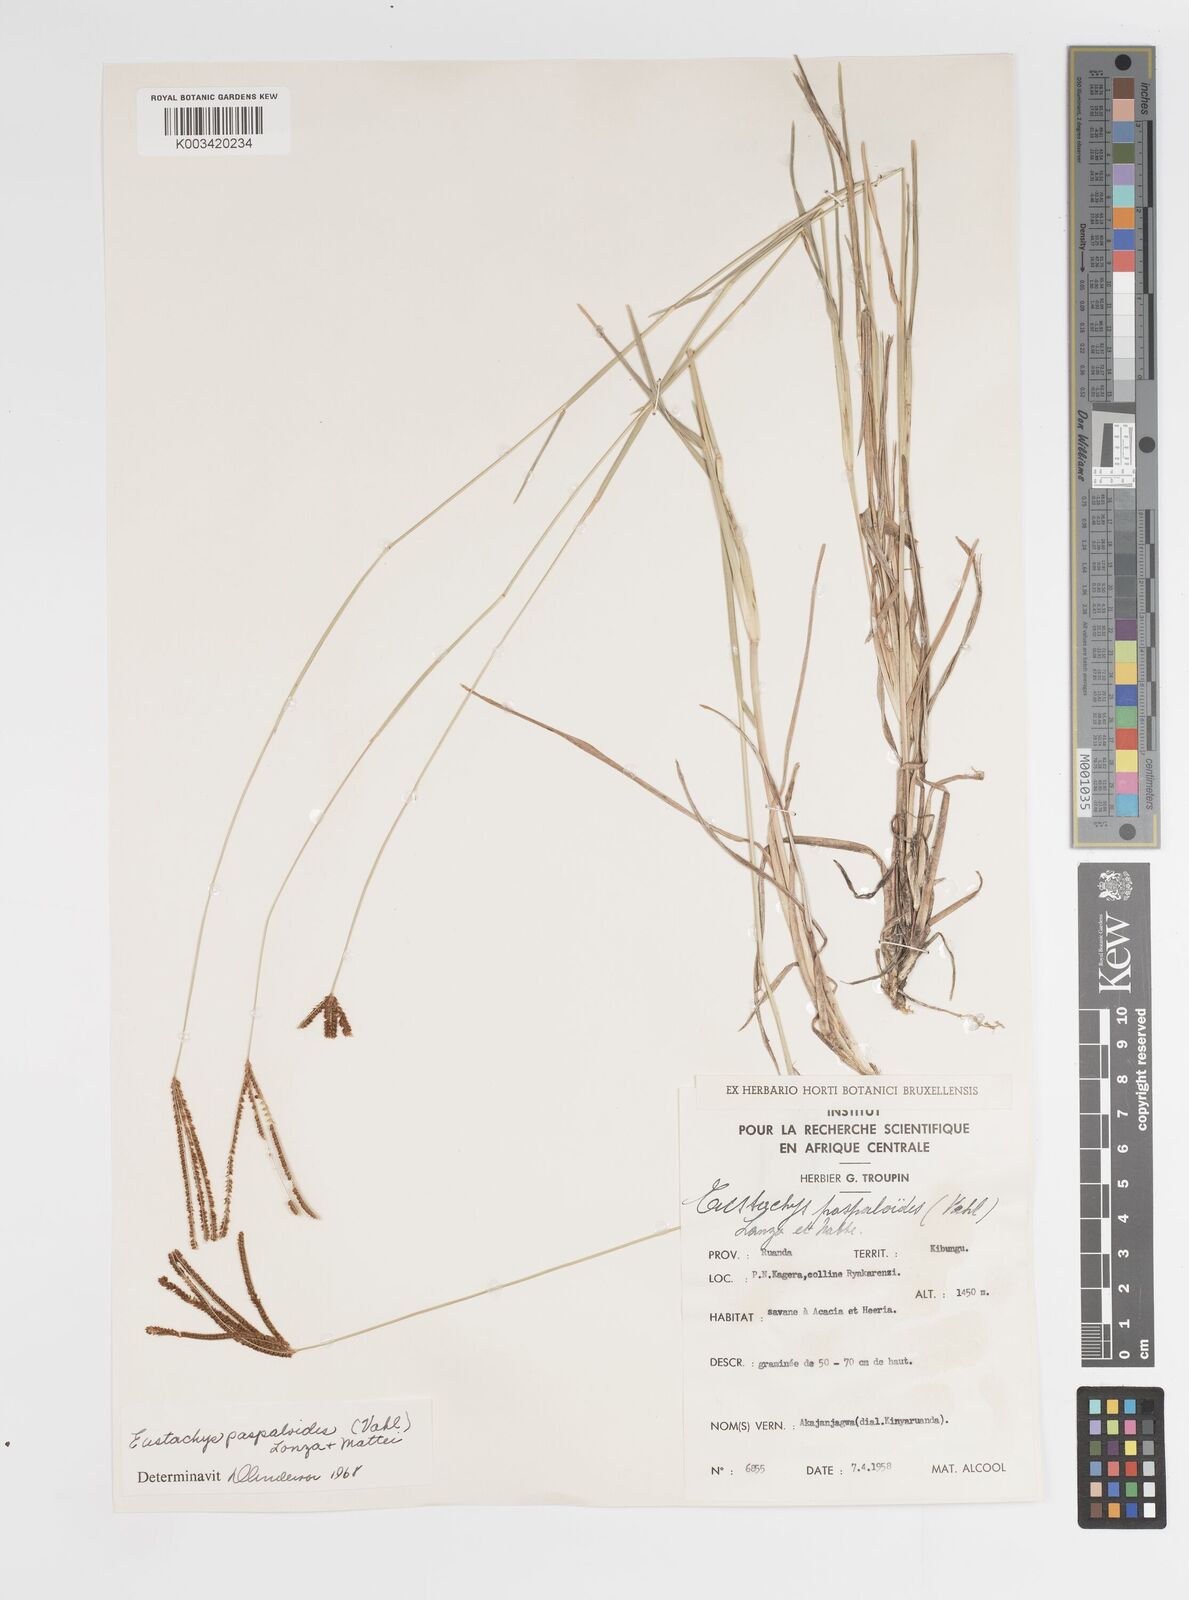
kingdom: Plantae
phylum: Tracheophyta
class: Liliopsida
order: Poales
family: Poaceae
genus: Eustachys
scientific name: Eustachys paspaloides
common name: Caribbean fingergrass
